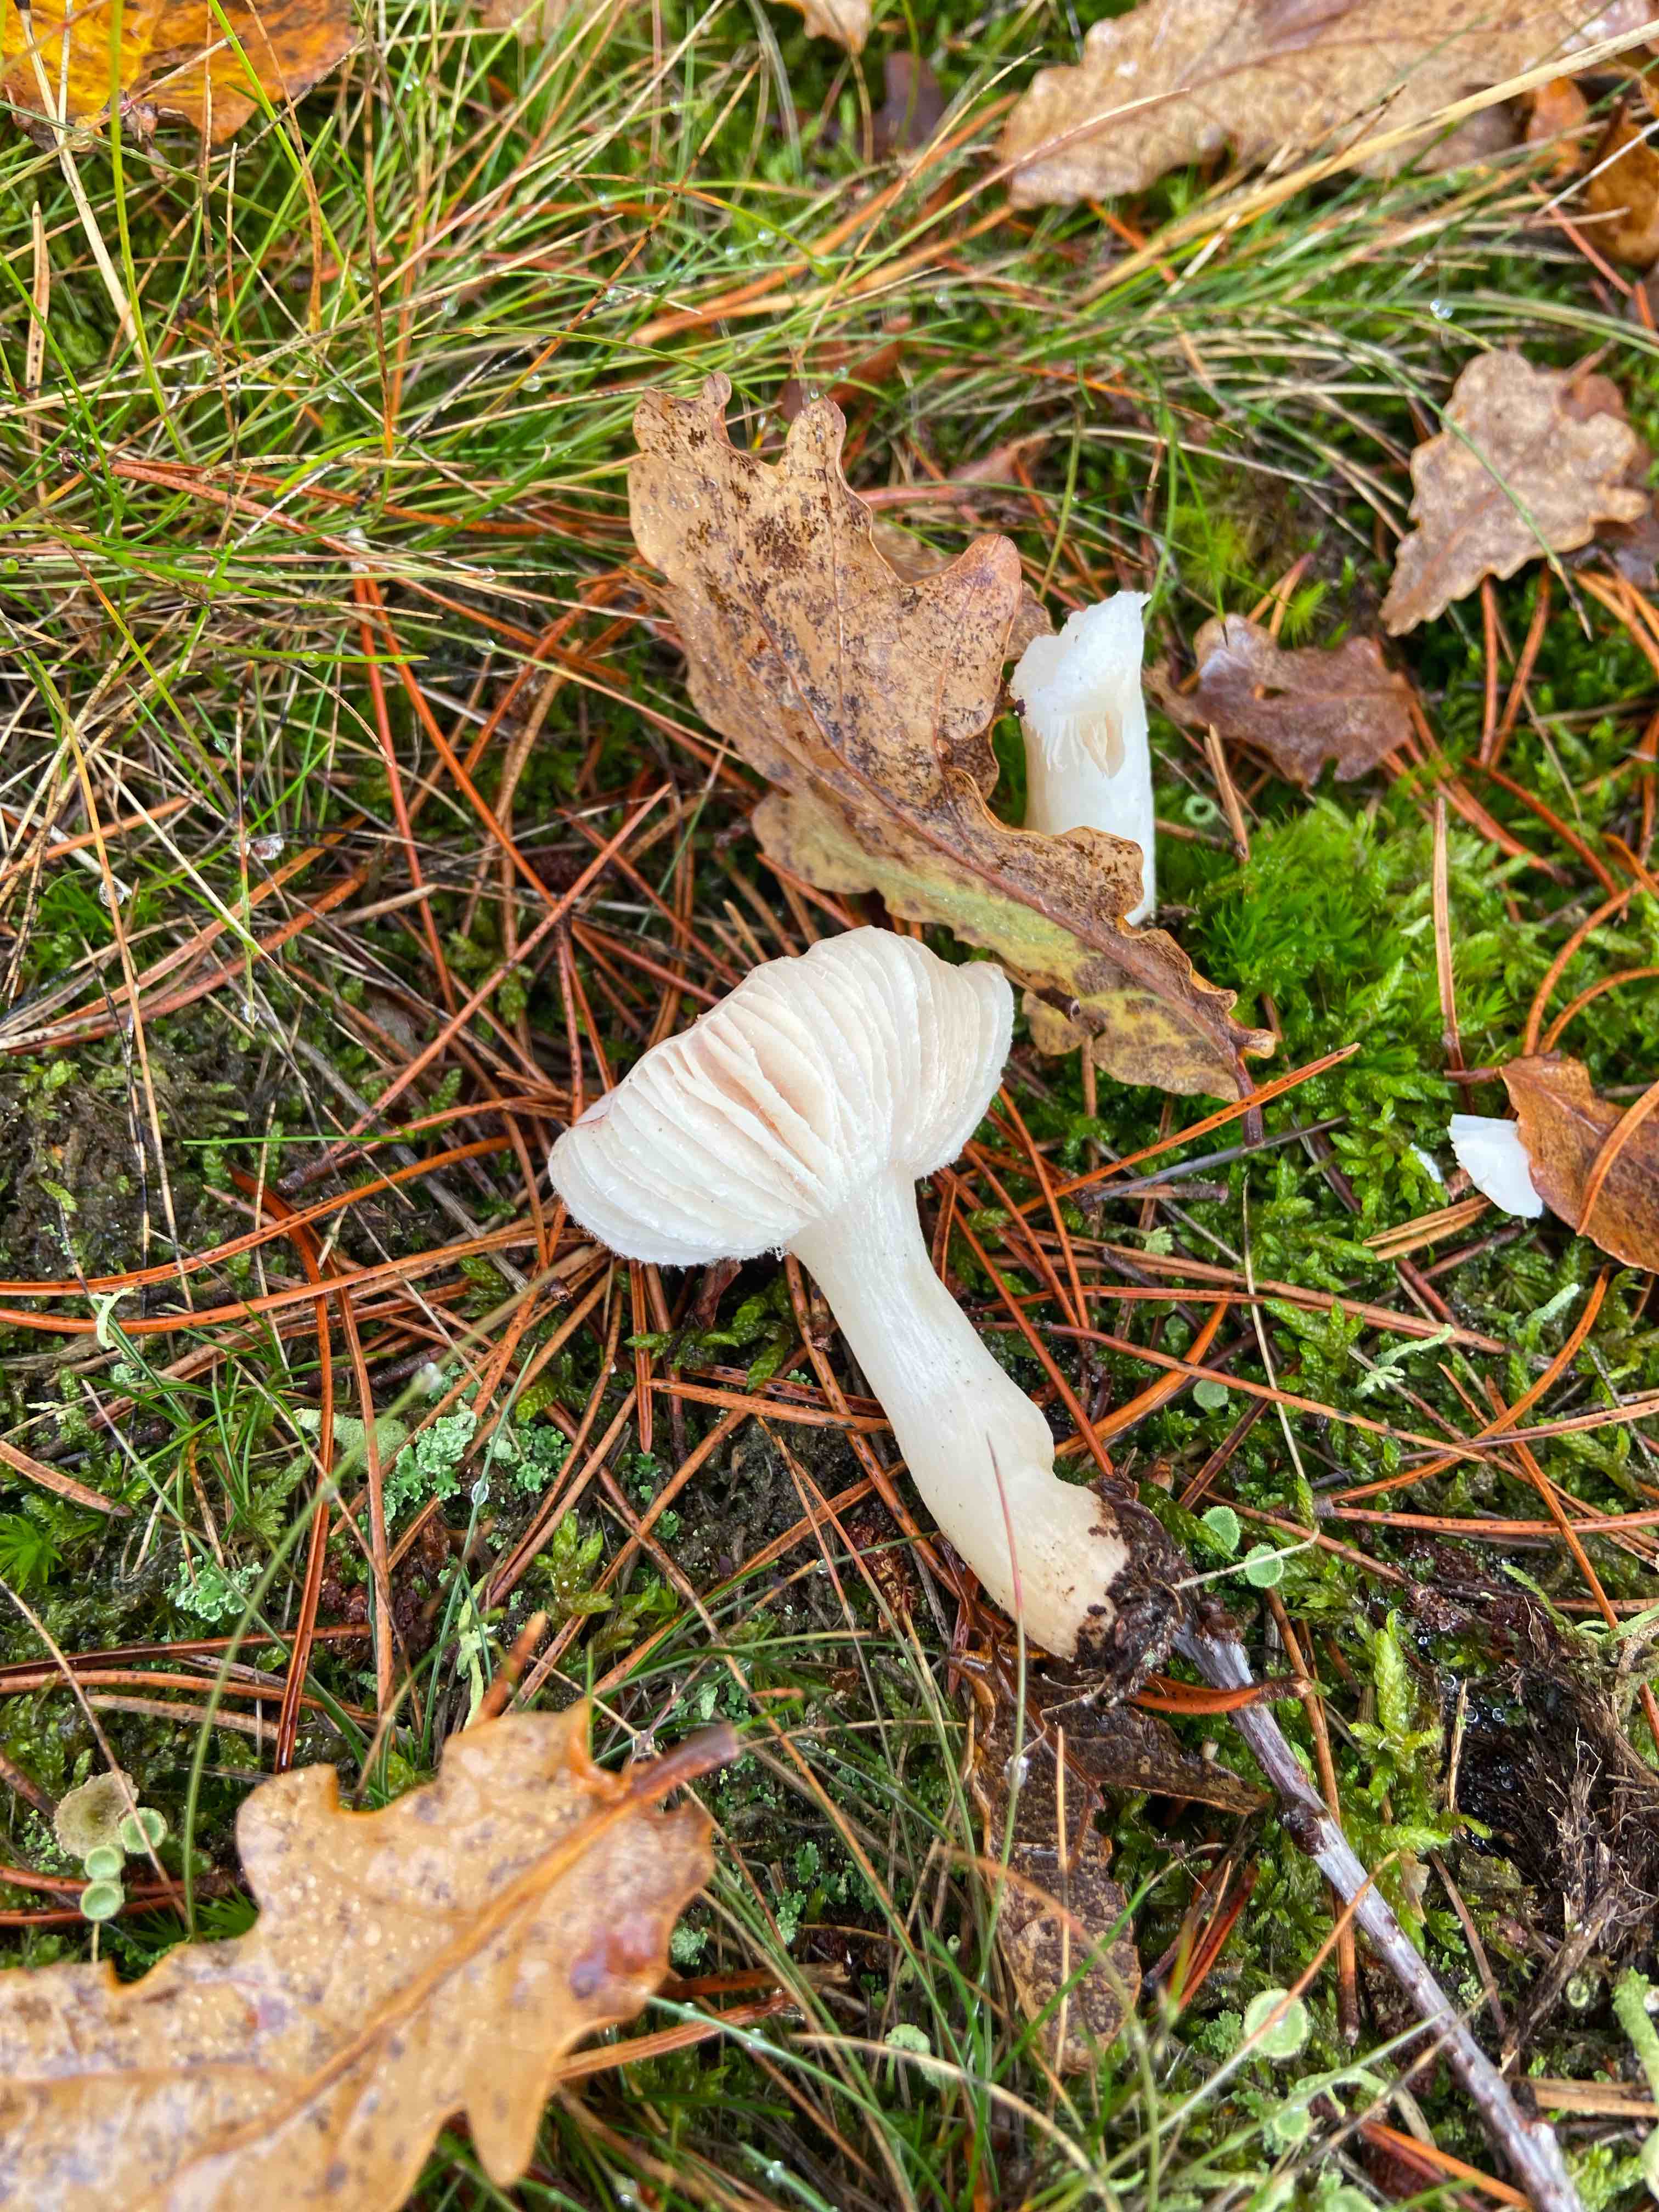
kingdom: Fungi
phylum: Basidiomycota
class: Agaricomycetes
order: Russulales
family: Russulaceae
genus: Russula
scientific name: Russula fragilis
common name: savbladet skørhat
